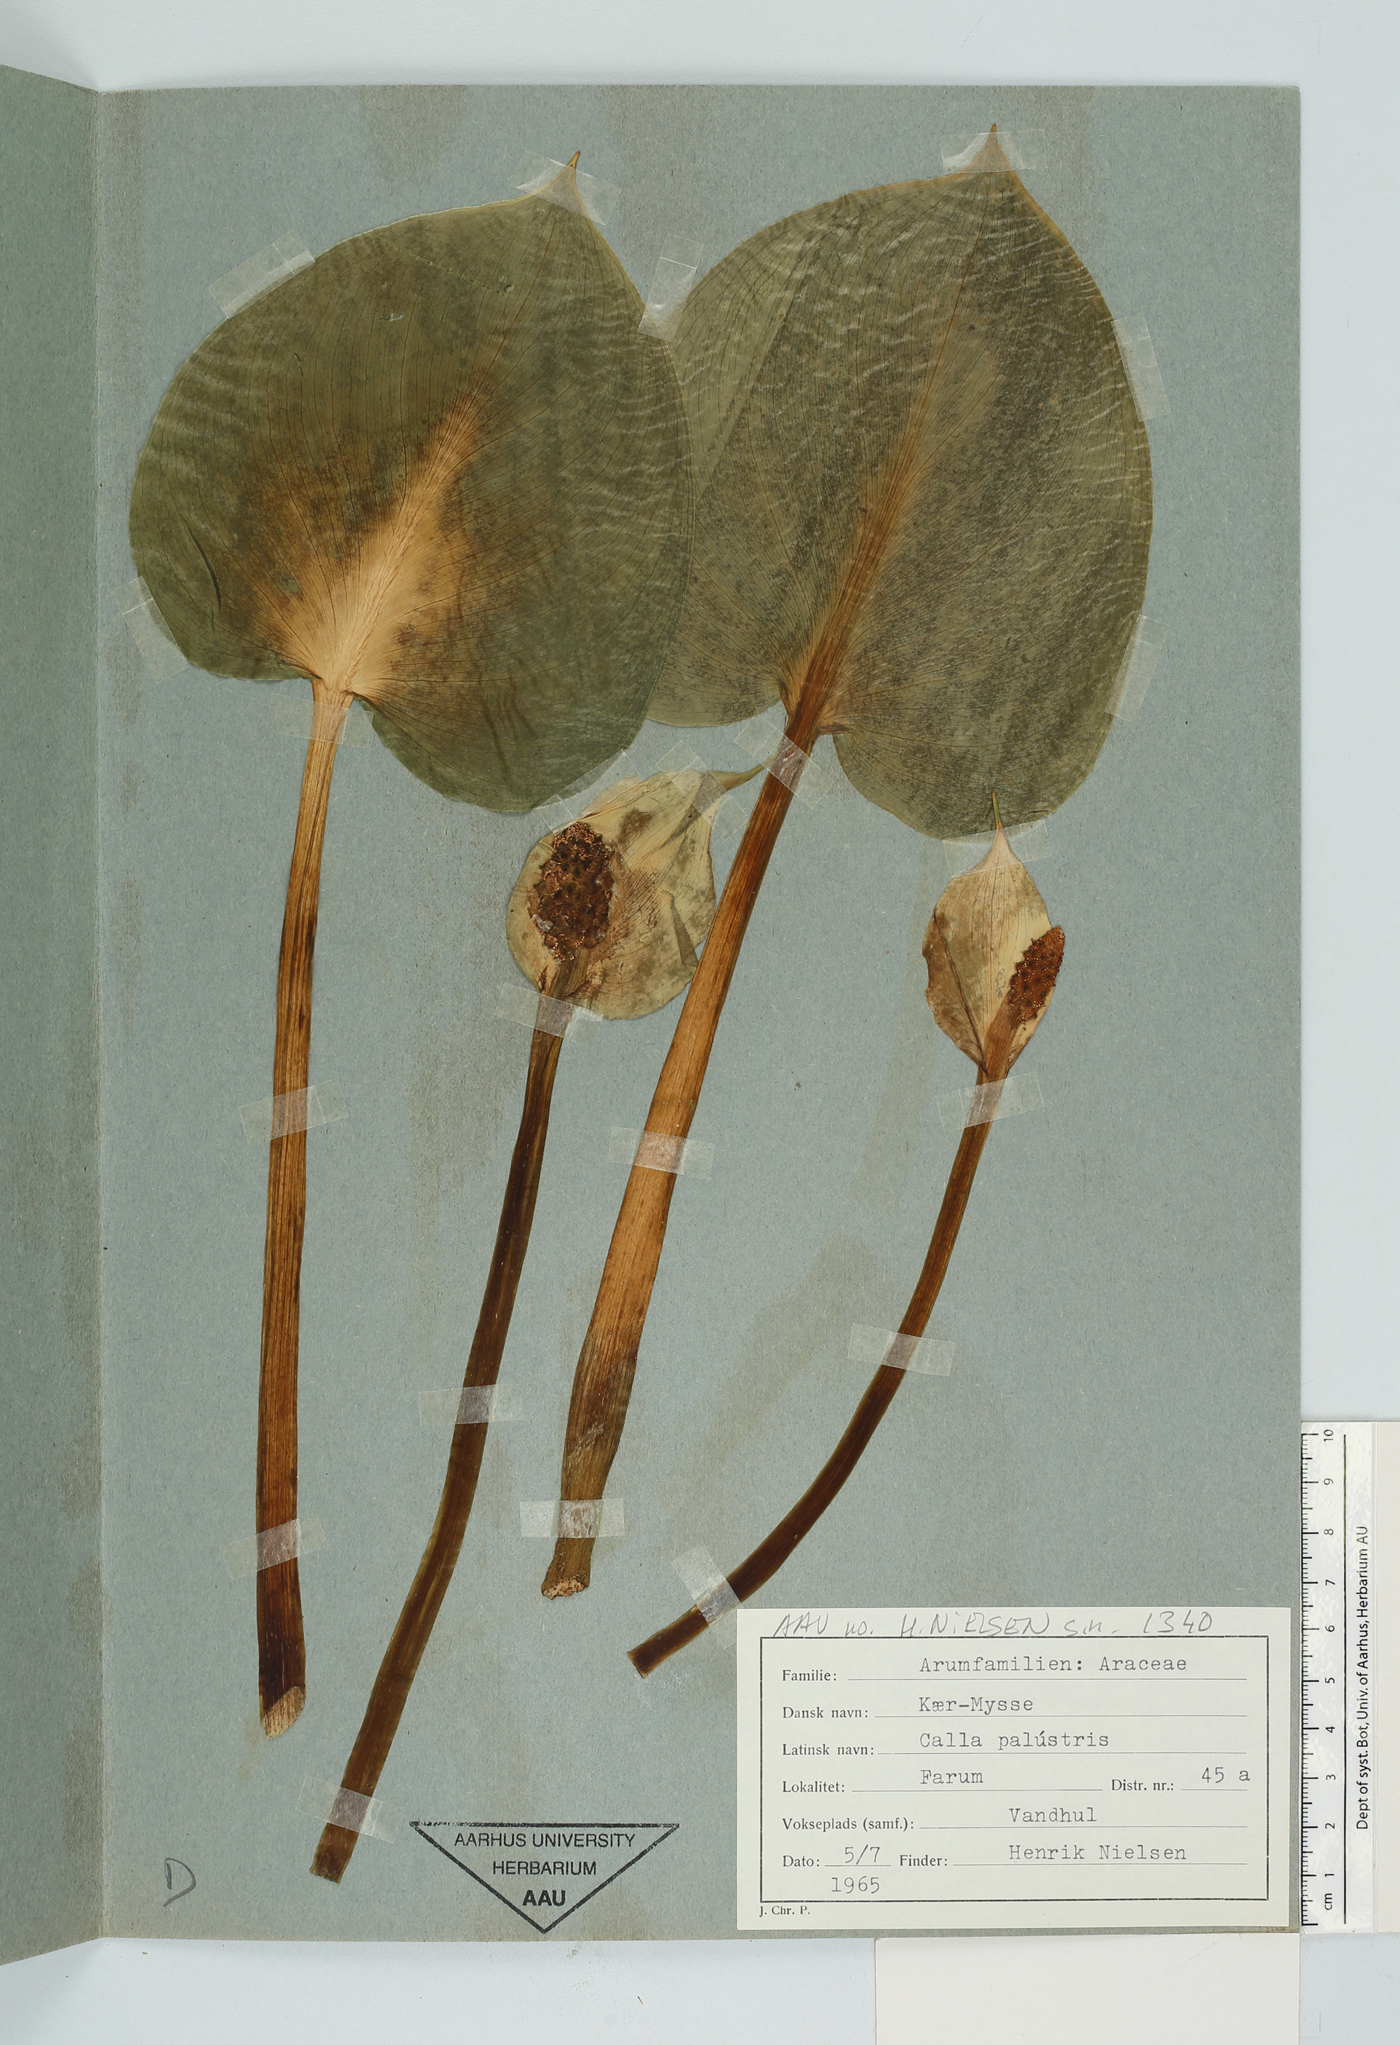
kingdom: Plantae
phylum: Tracheophyta
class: Liliopsida
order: Alismatales
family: Araceae
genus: Calla
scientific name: Calla palustris
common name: Bog arum
